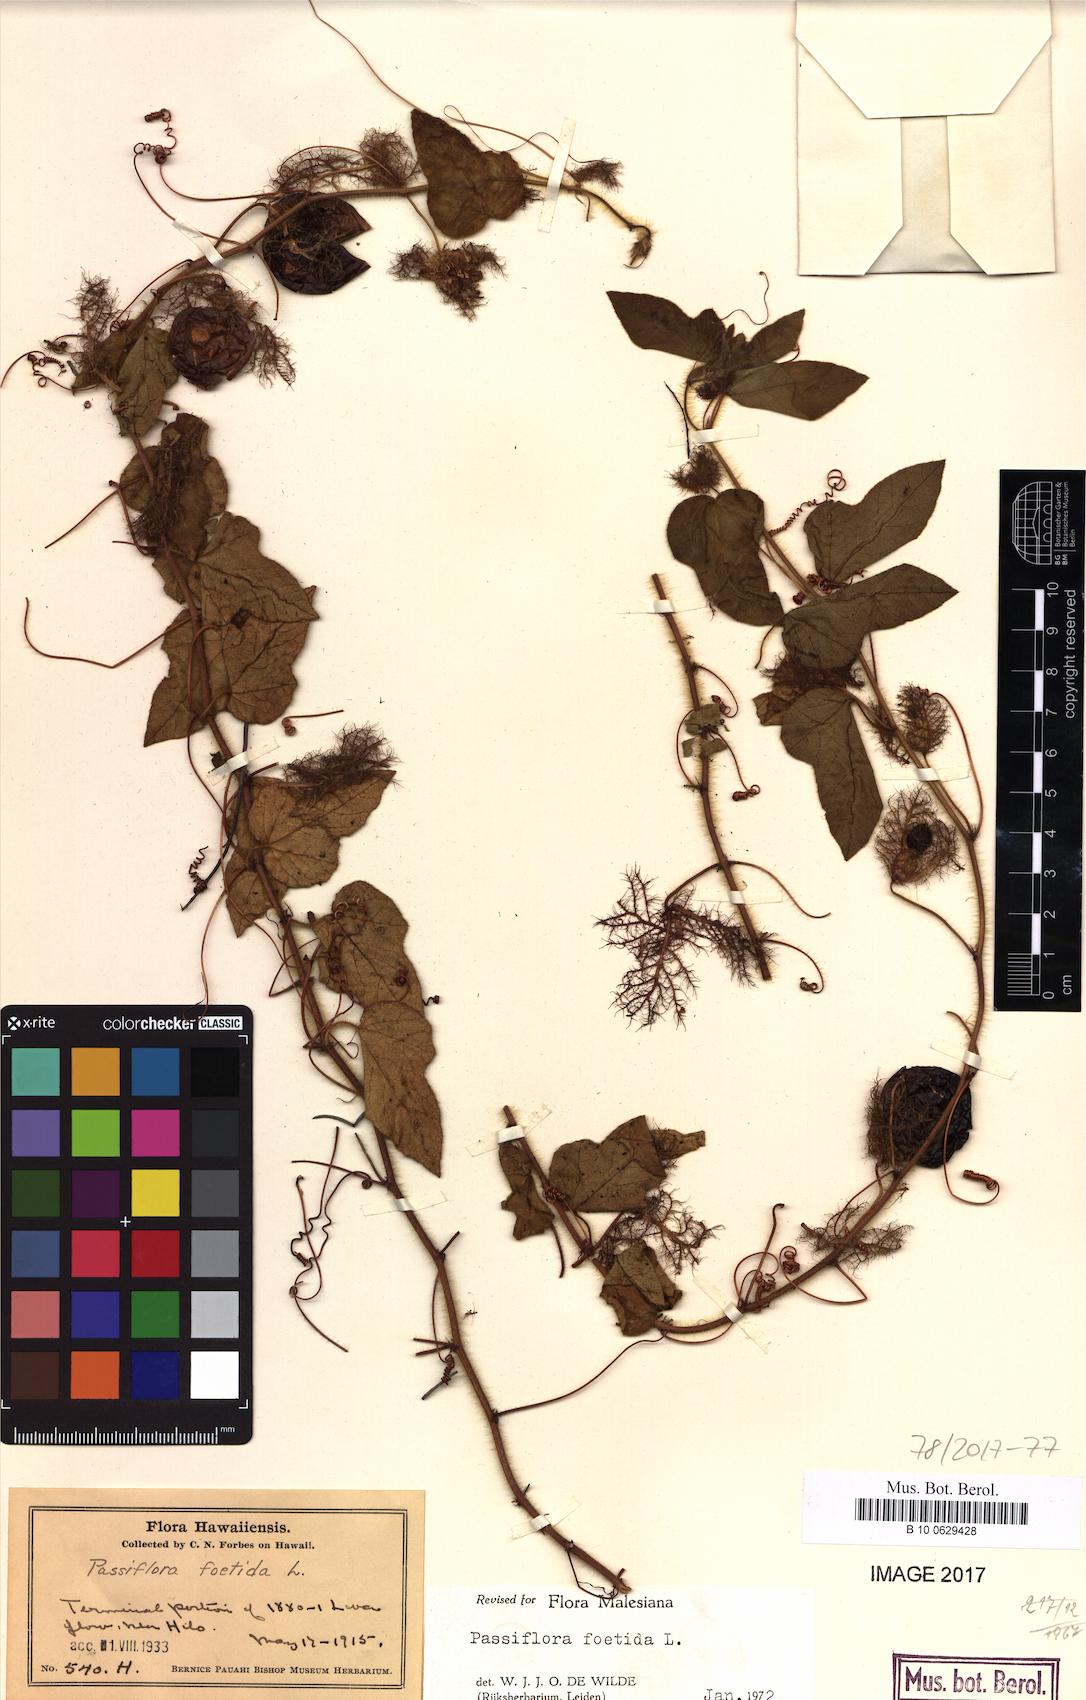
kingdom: Plantae
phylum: Tracheophyta
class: Magnoliopsida
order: Malpighiales
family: Passifloraceae
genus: Passiflora
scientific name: Passiflora foetida
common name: Fetid passionflower
